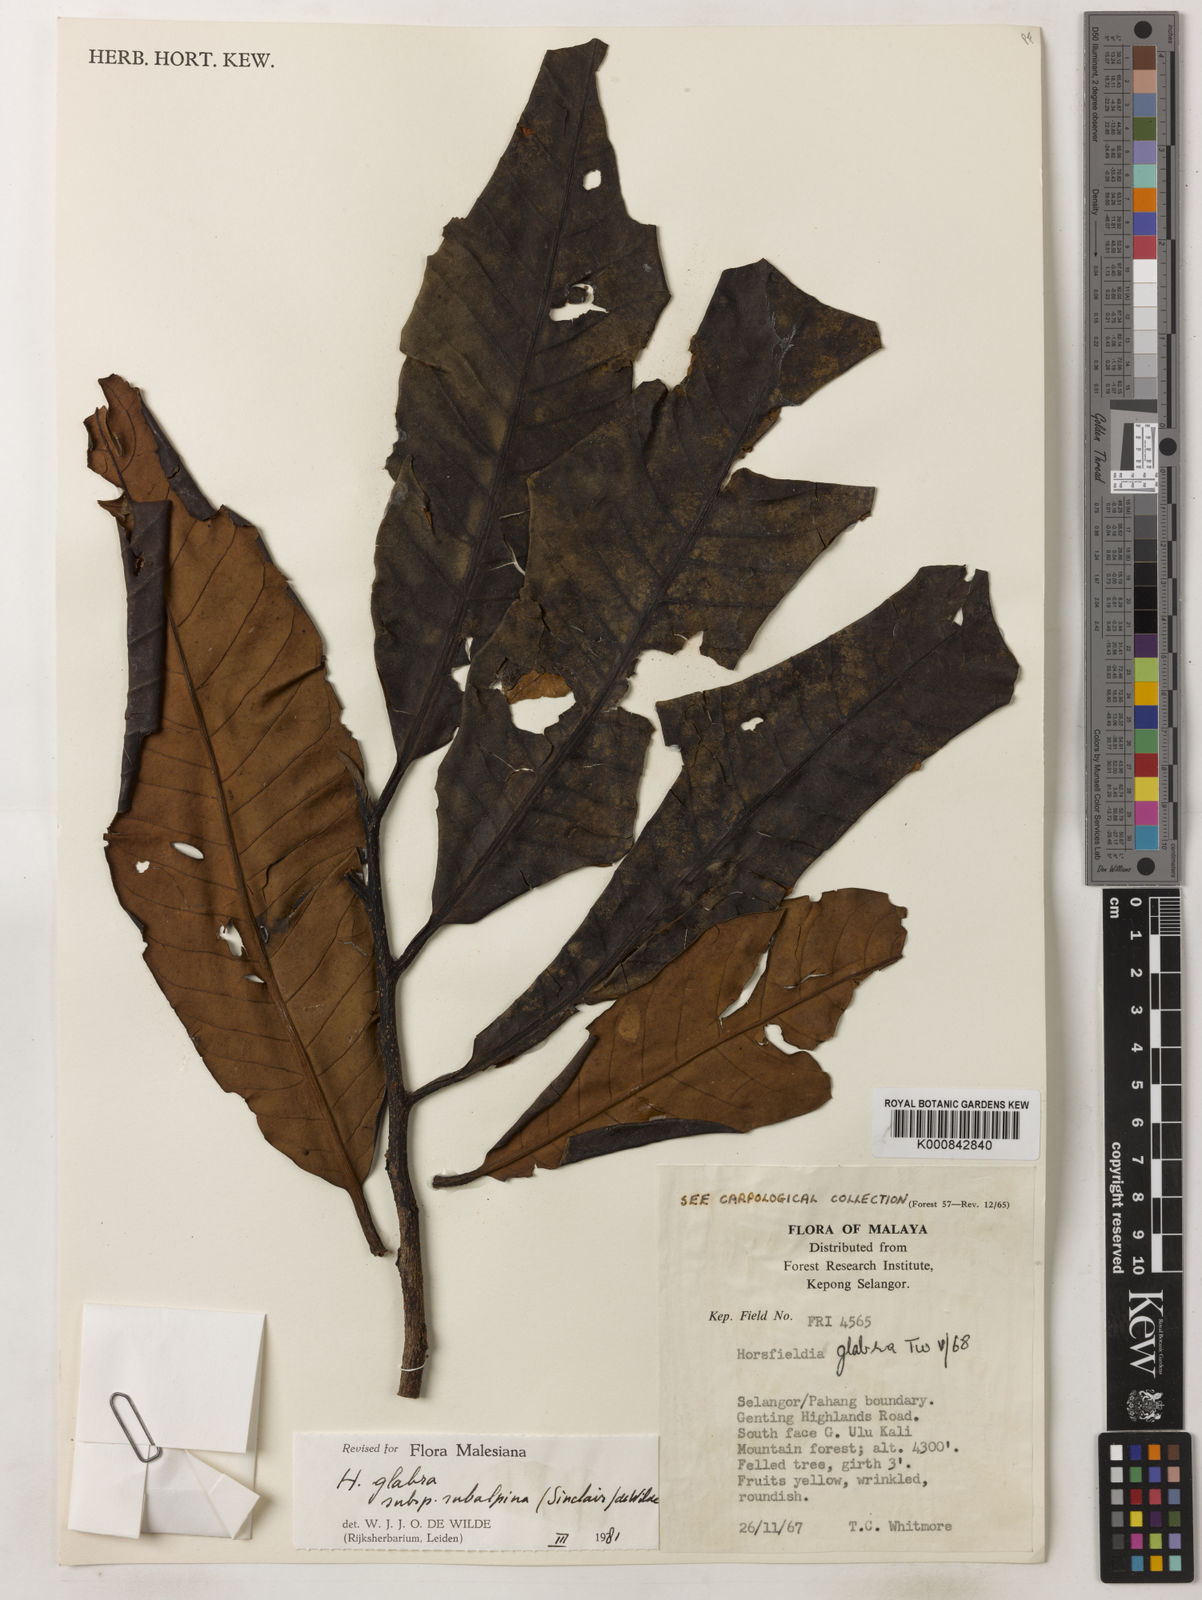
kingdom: Plantae
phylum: Tracheophyta
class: Magnoliopsida
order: Magnoliales
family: Myristicaceae
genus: Horsfieldia
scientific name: Horsfieldia
